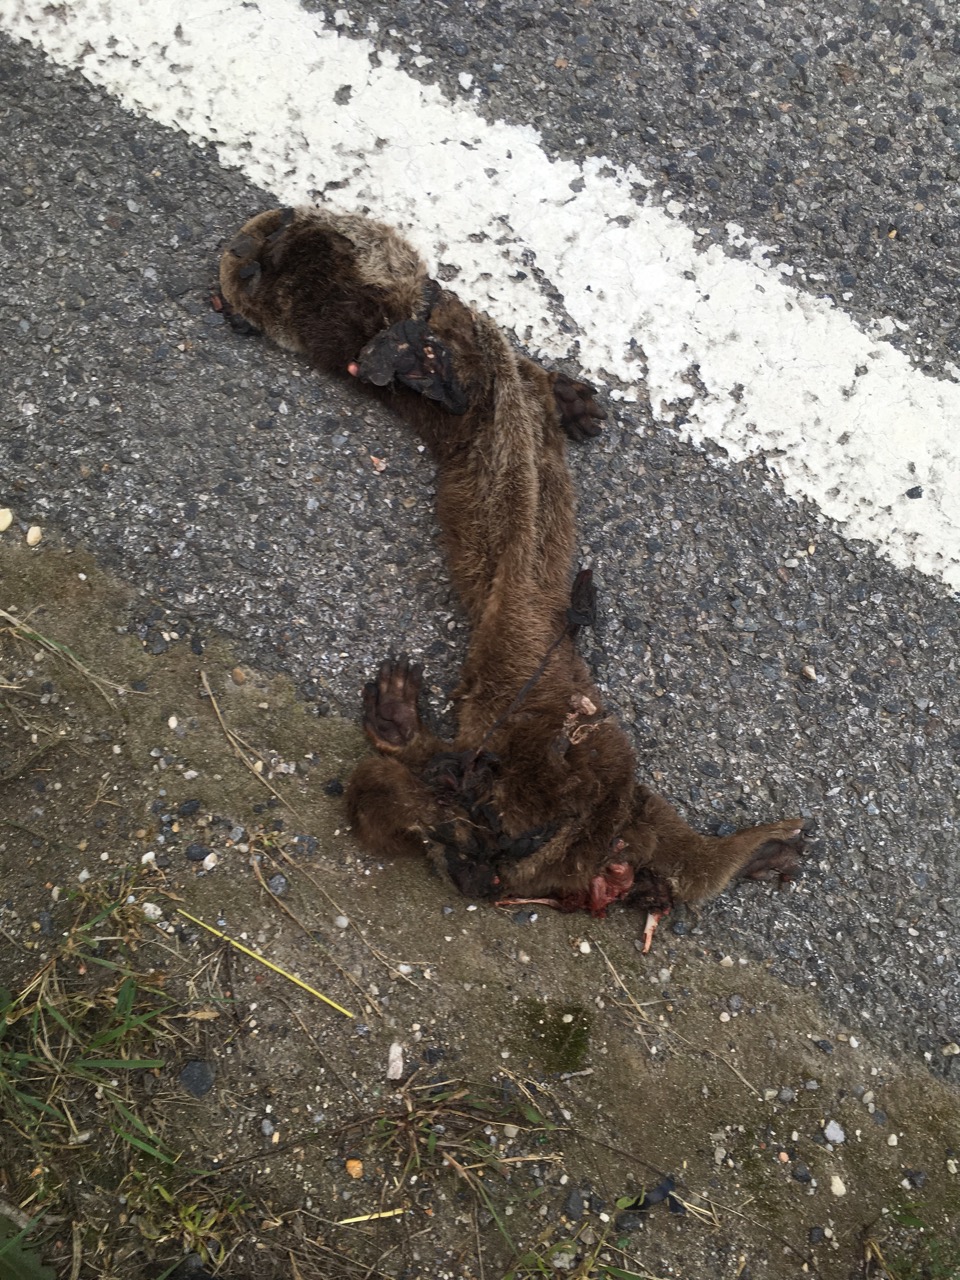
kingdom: Animalia
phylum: Chordata
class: Mammalia
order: Carnivora
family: Mustelidae
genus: Lutra
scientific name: Lutra lutra
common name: European otter
